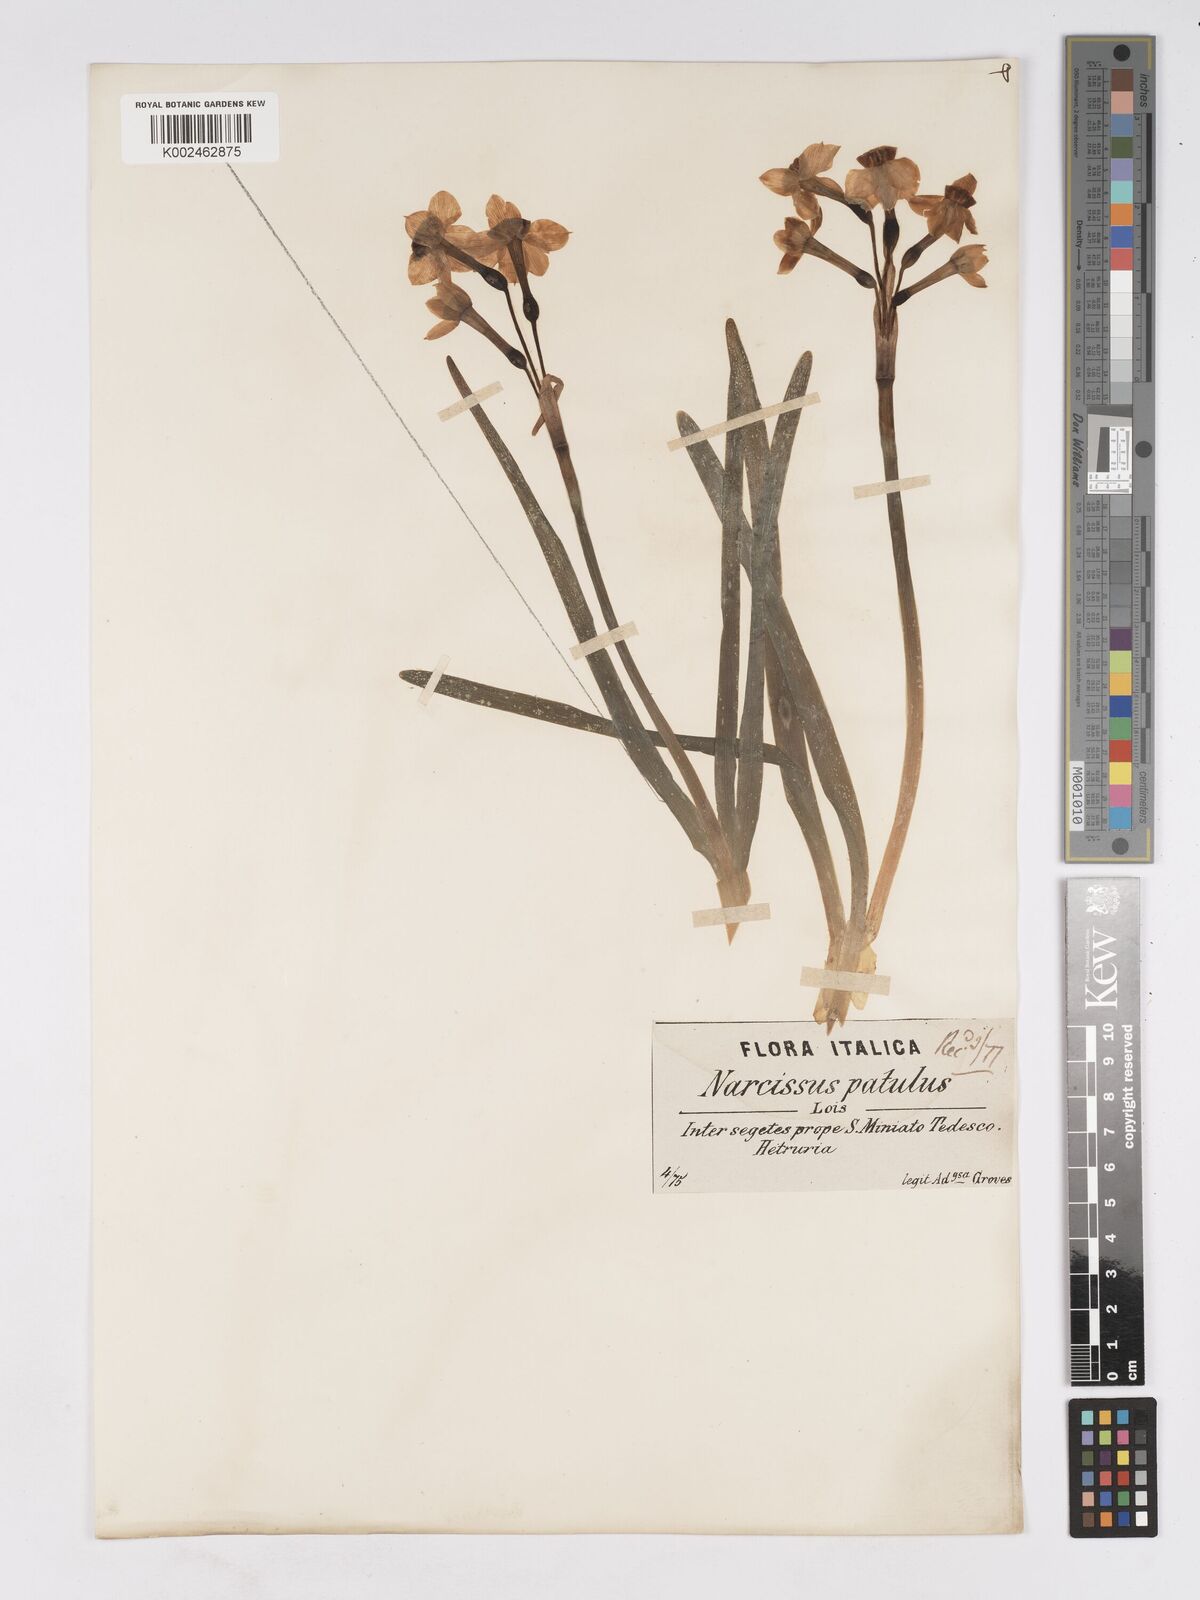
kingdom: Plantae
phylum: Tracheophyta
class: Liliopsida
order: Asparagales
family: Amaryllidaceae
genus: Narcissus
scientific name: Narcissus tazetta
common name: Bunch-flowered daffodil
